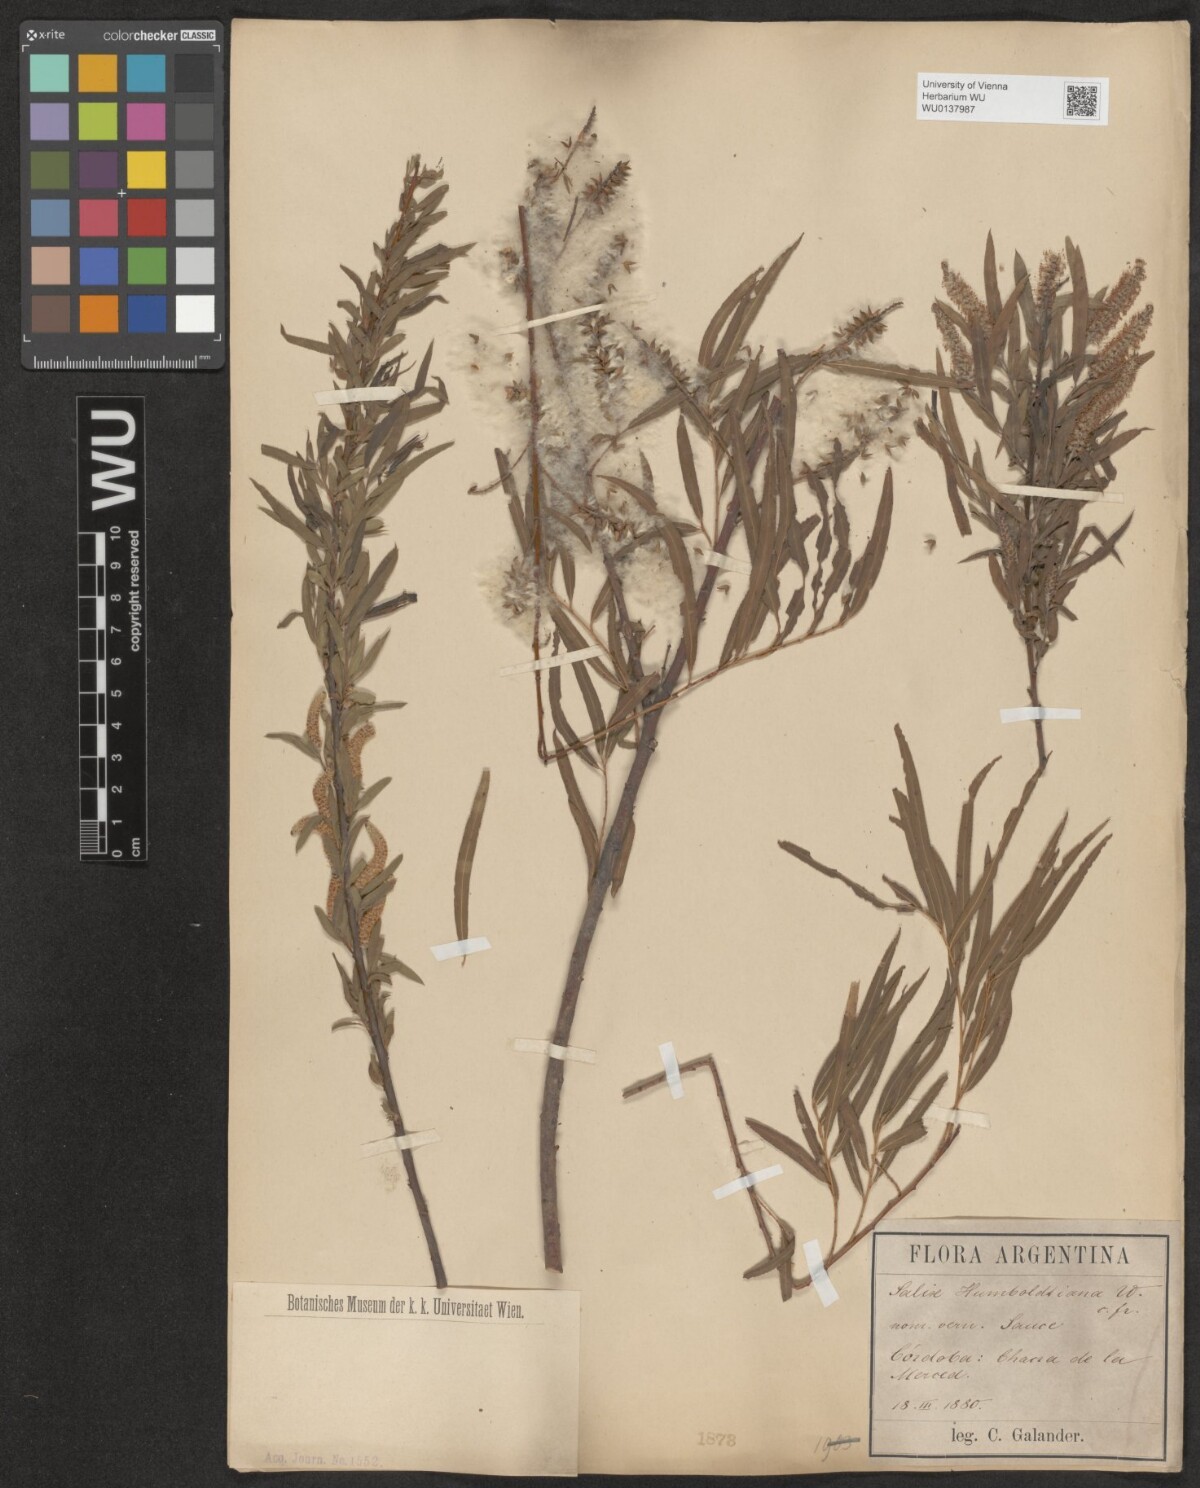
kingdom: Plantae
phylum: Tracheophyta
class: Magnoliopsida
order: Malpighiales
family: Salicaceae
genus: Salix
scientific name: Salix humboldtiana
